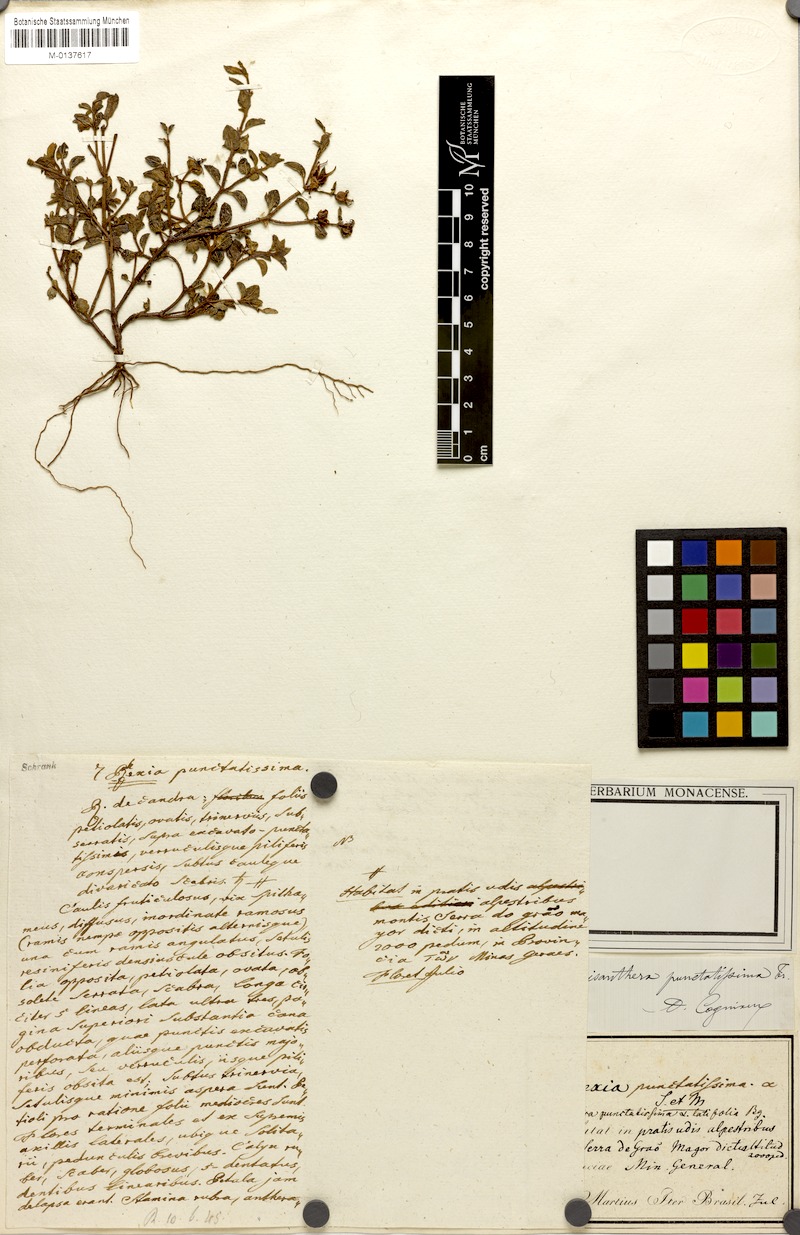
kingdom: Plantae
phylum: Tracheophyta
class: Magnoliopsida
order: Myrtales
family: Melastomataceae
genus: Acisanthera
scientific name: Acisanthera quadrata
